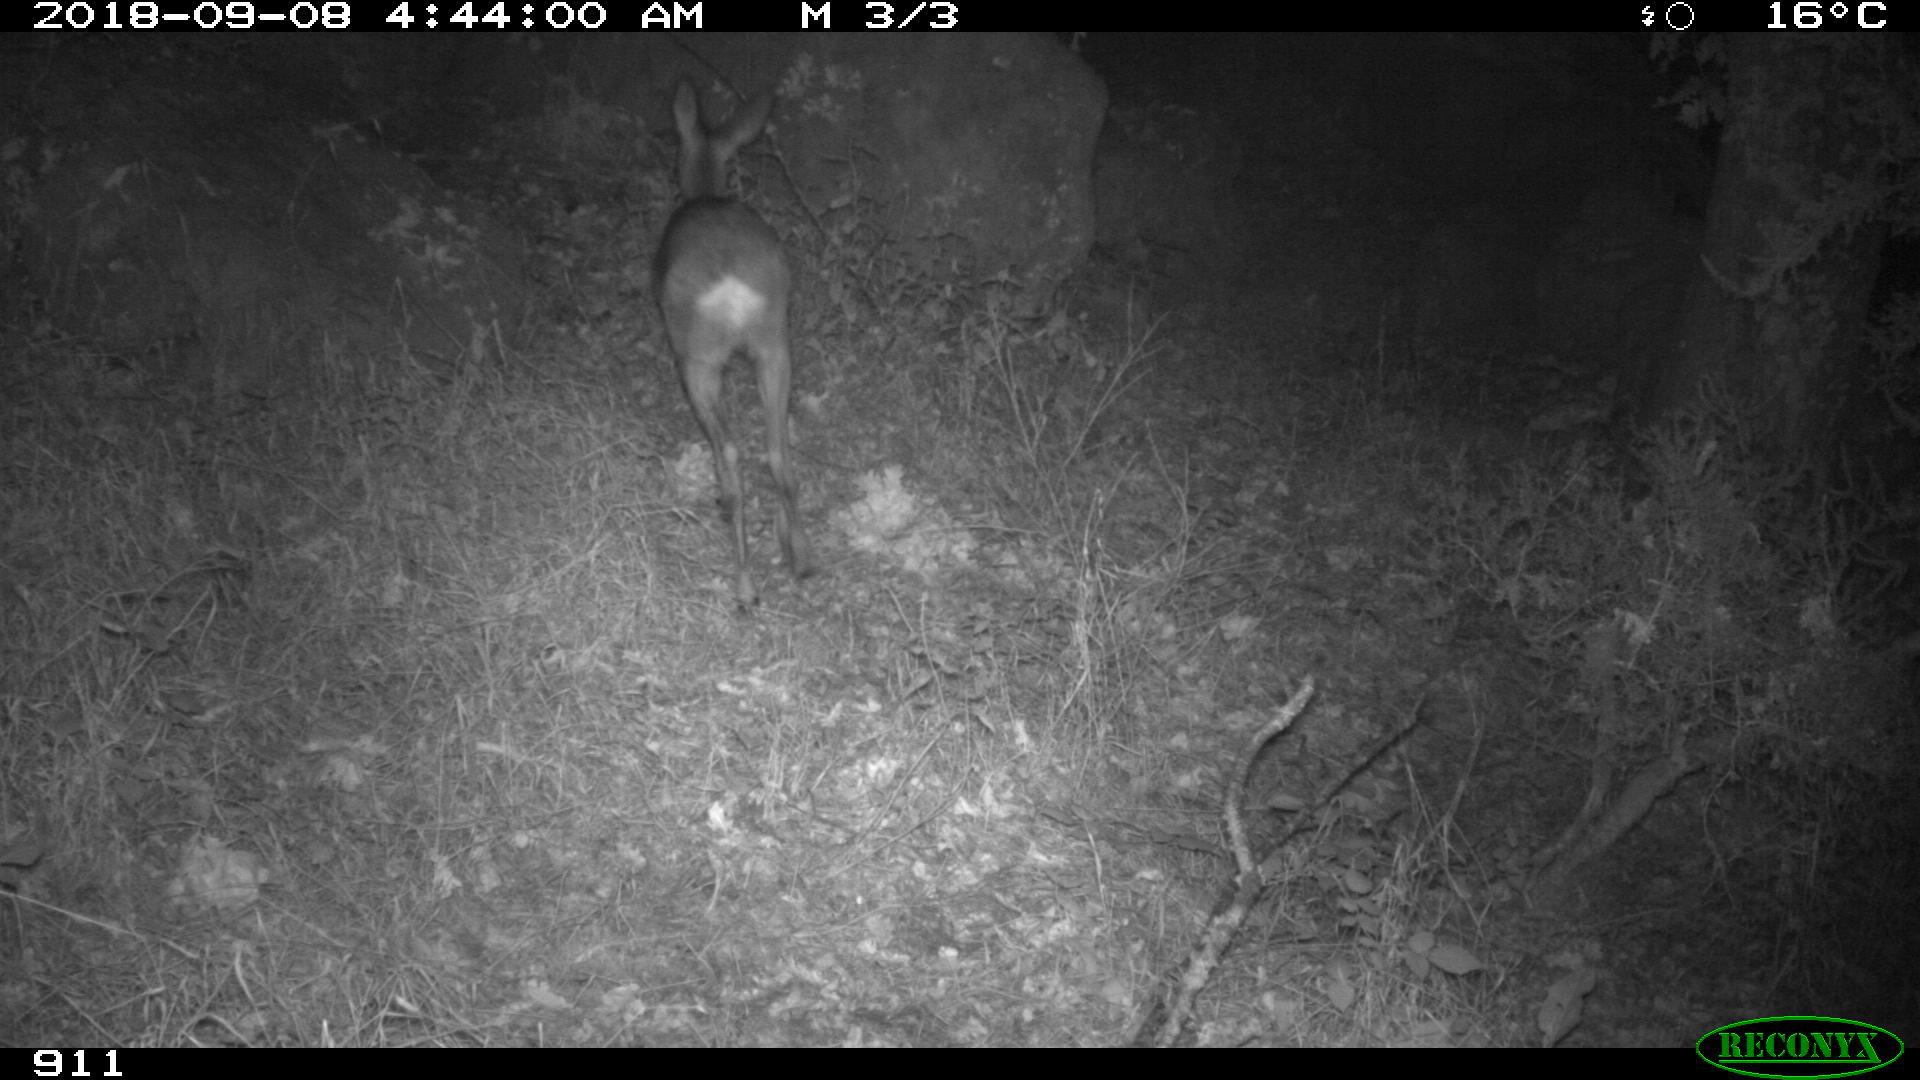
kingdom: Animalia
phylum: Chordata
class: Mammalia
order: Artiodactyla
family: Cervidae
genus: Capreolus
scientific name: Capreolus capreolus
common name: Western roe deer
